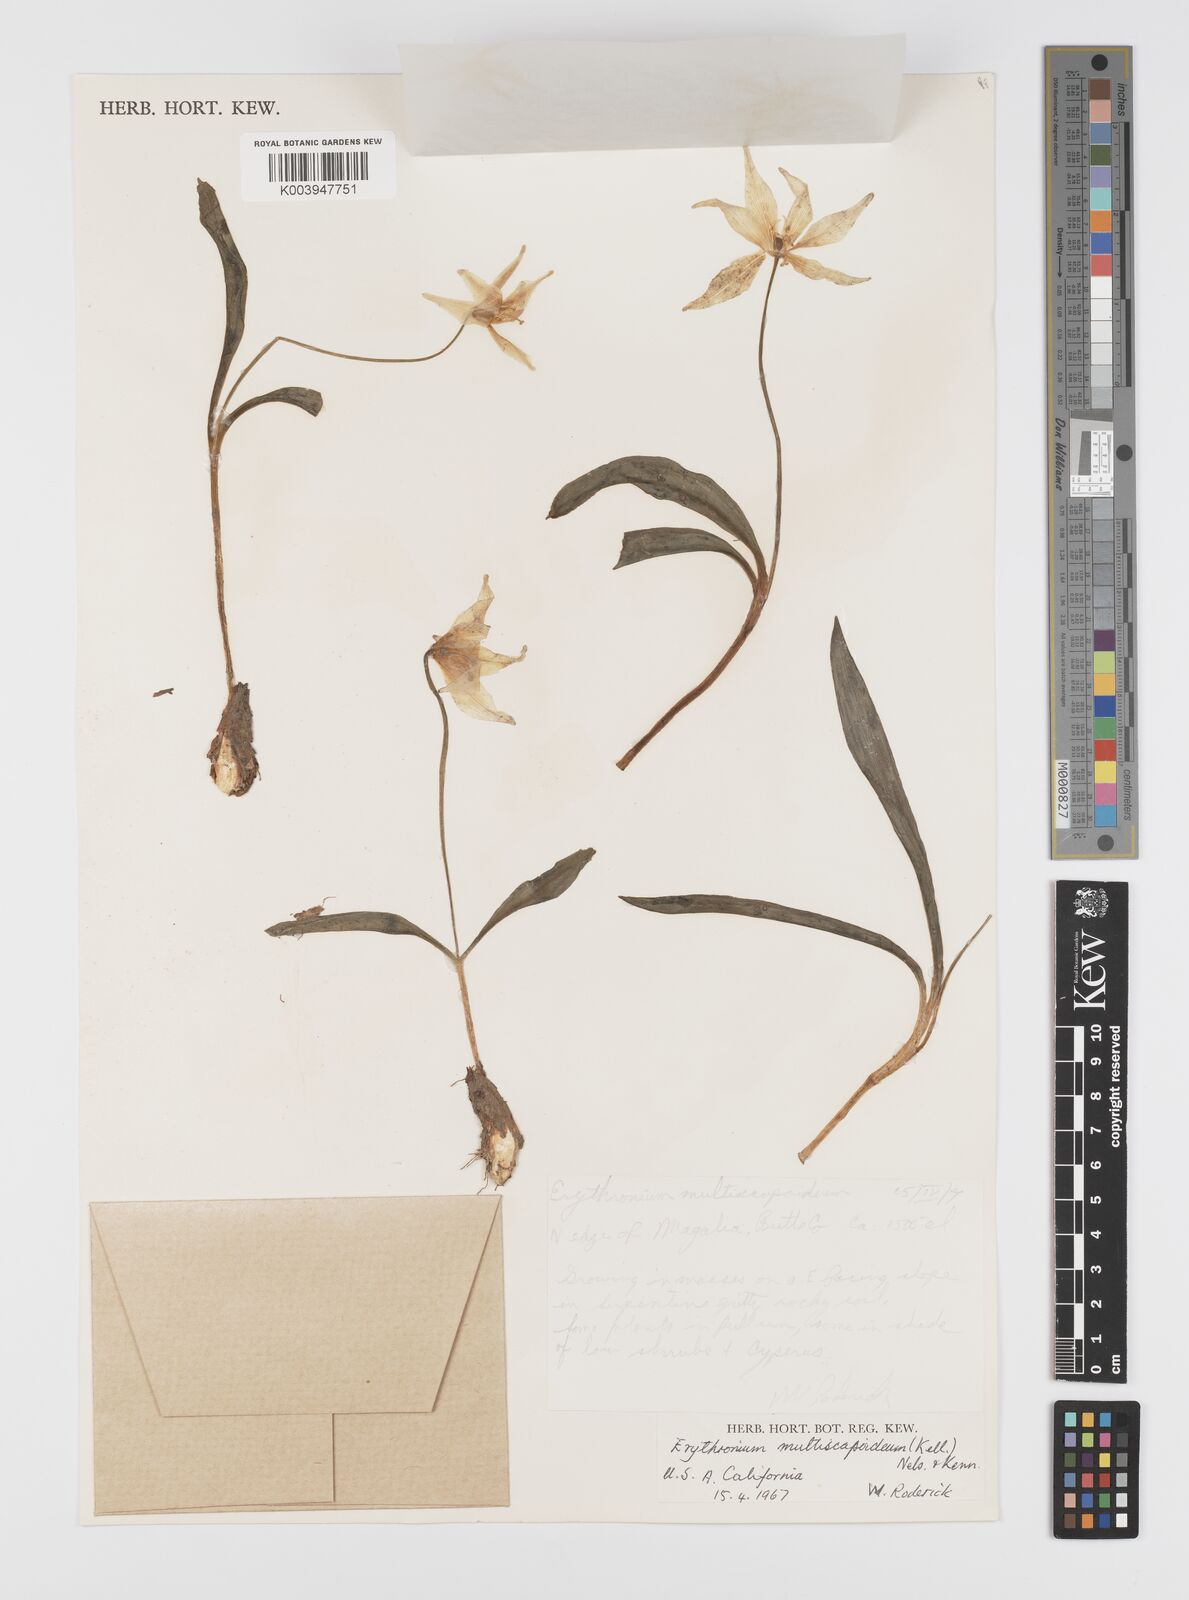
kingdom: Plantae
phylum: Tracheophyta
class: Liliopsida
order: Liliales
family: Liliaceae
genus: Erythronium
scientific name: Erythronium multiscapideum
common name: Sierra foothills fawn-lily
